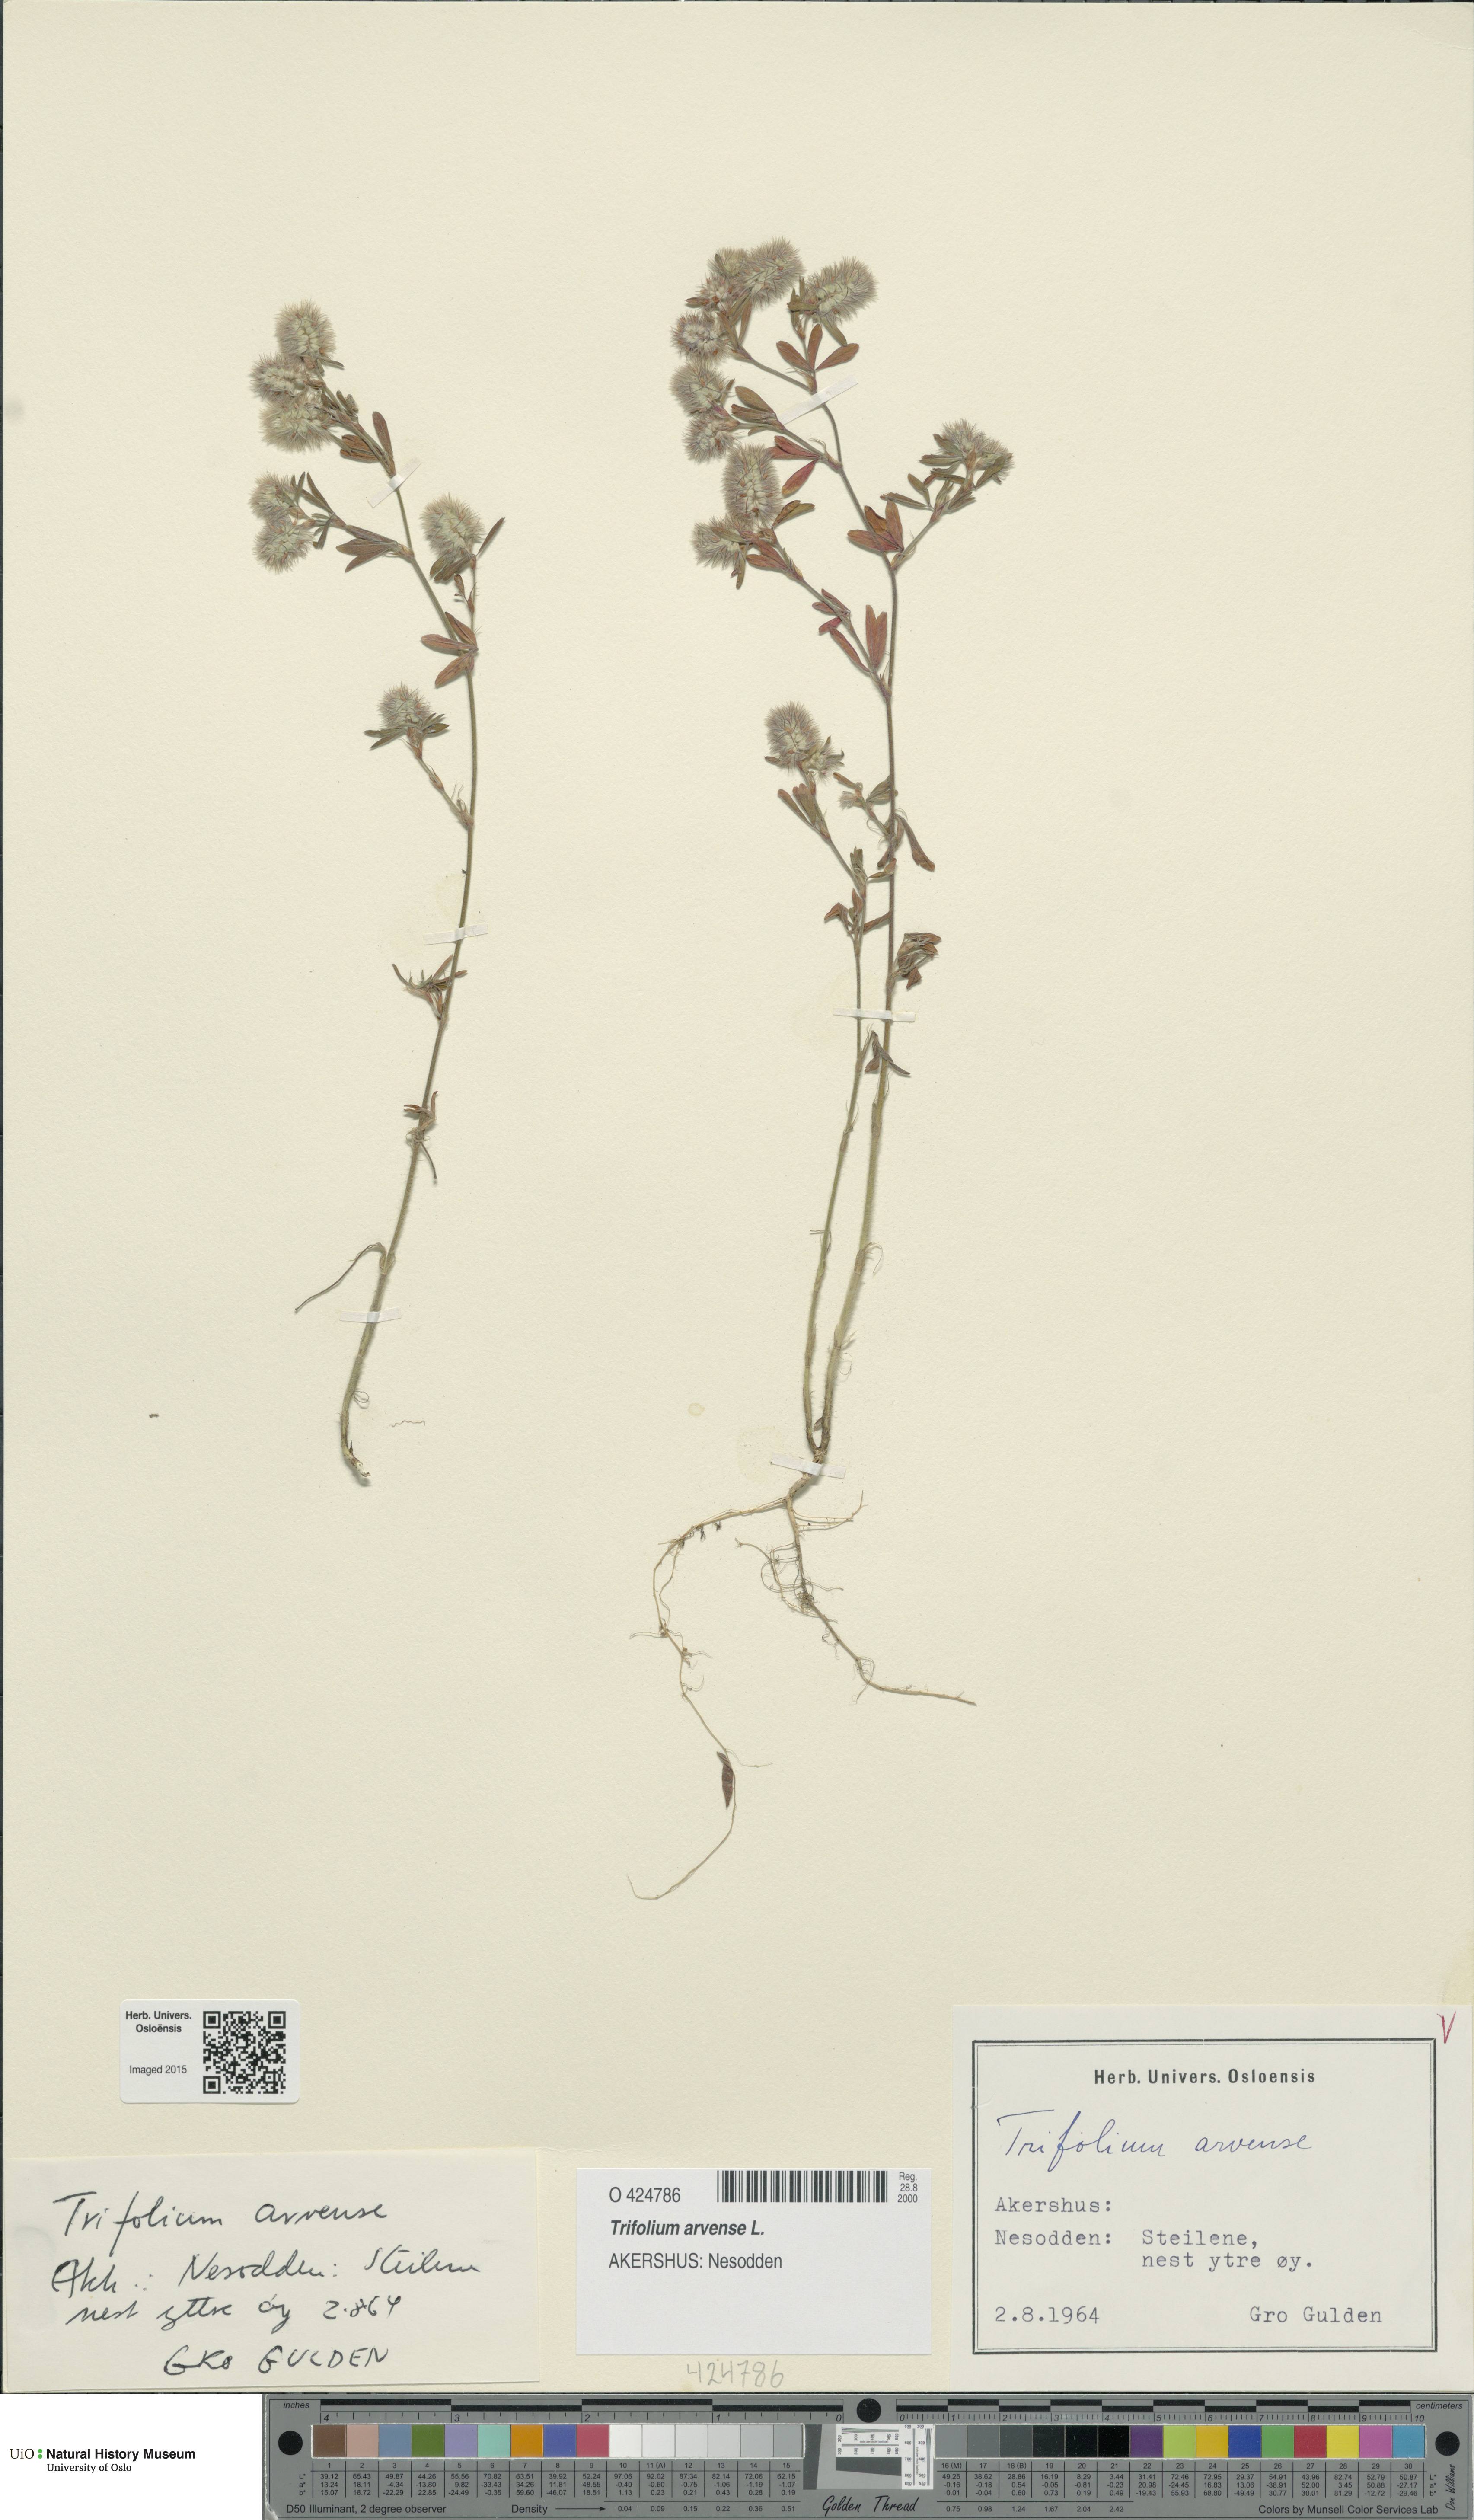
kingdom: Plantae
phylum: Tracheophyta
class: Magnoliopsida
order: Fabales
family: Fabaceae
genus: Trifolium
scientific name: Trifolium arvense
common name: Hare's-foot clover
